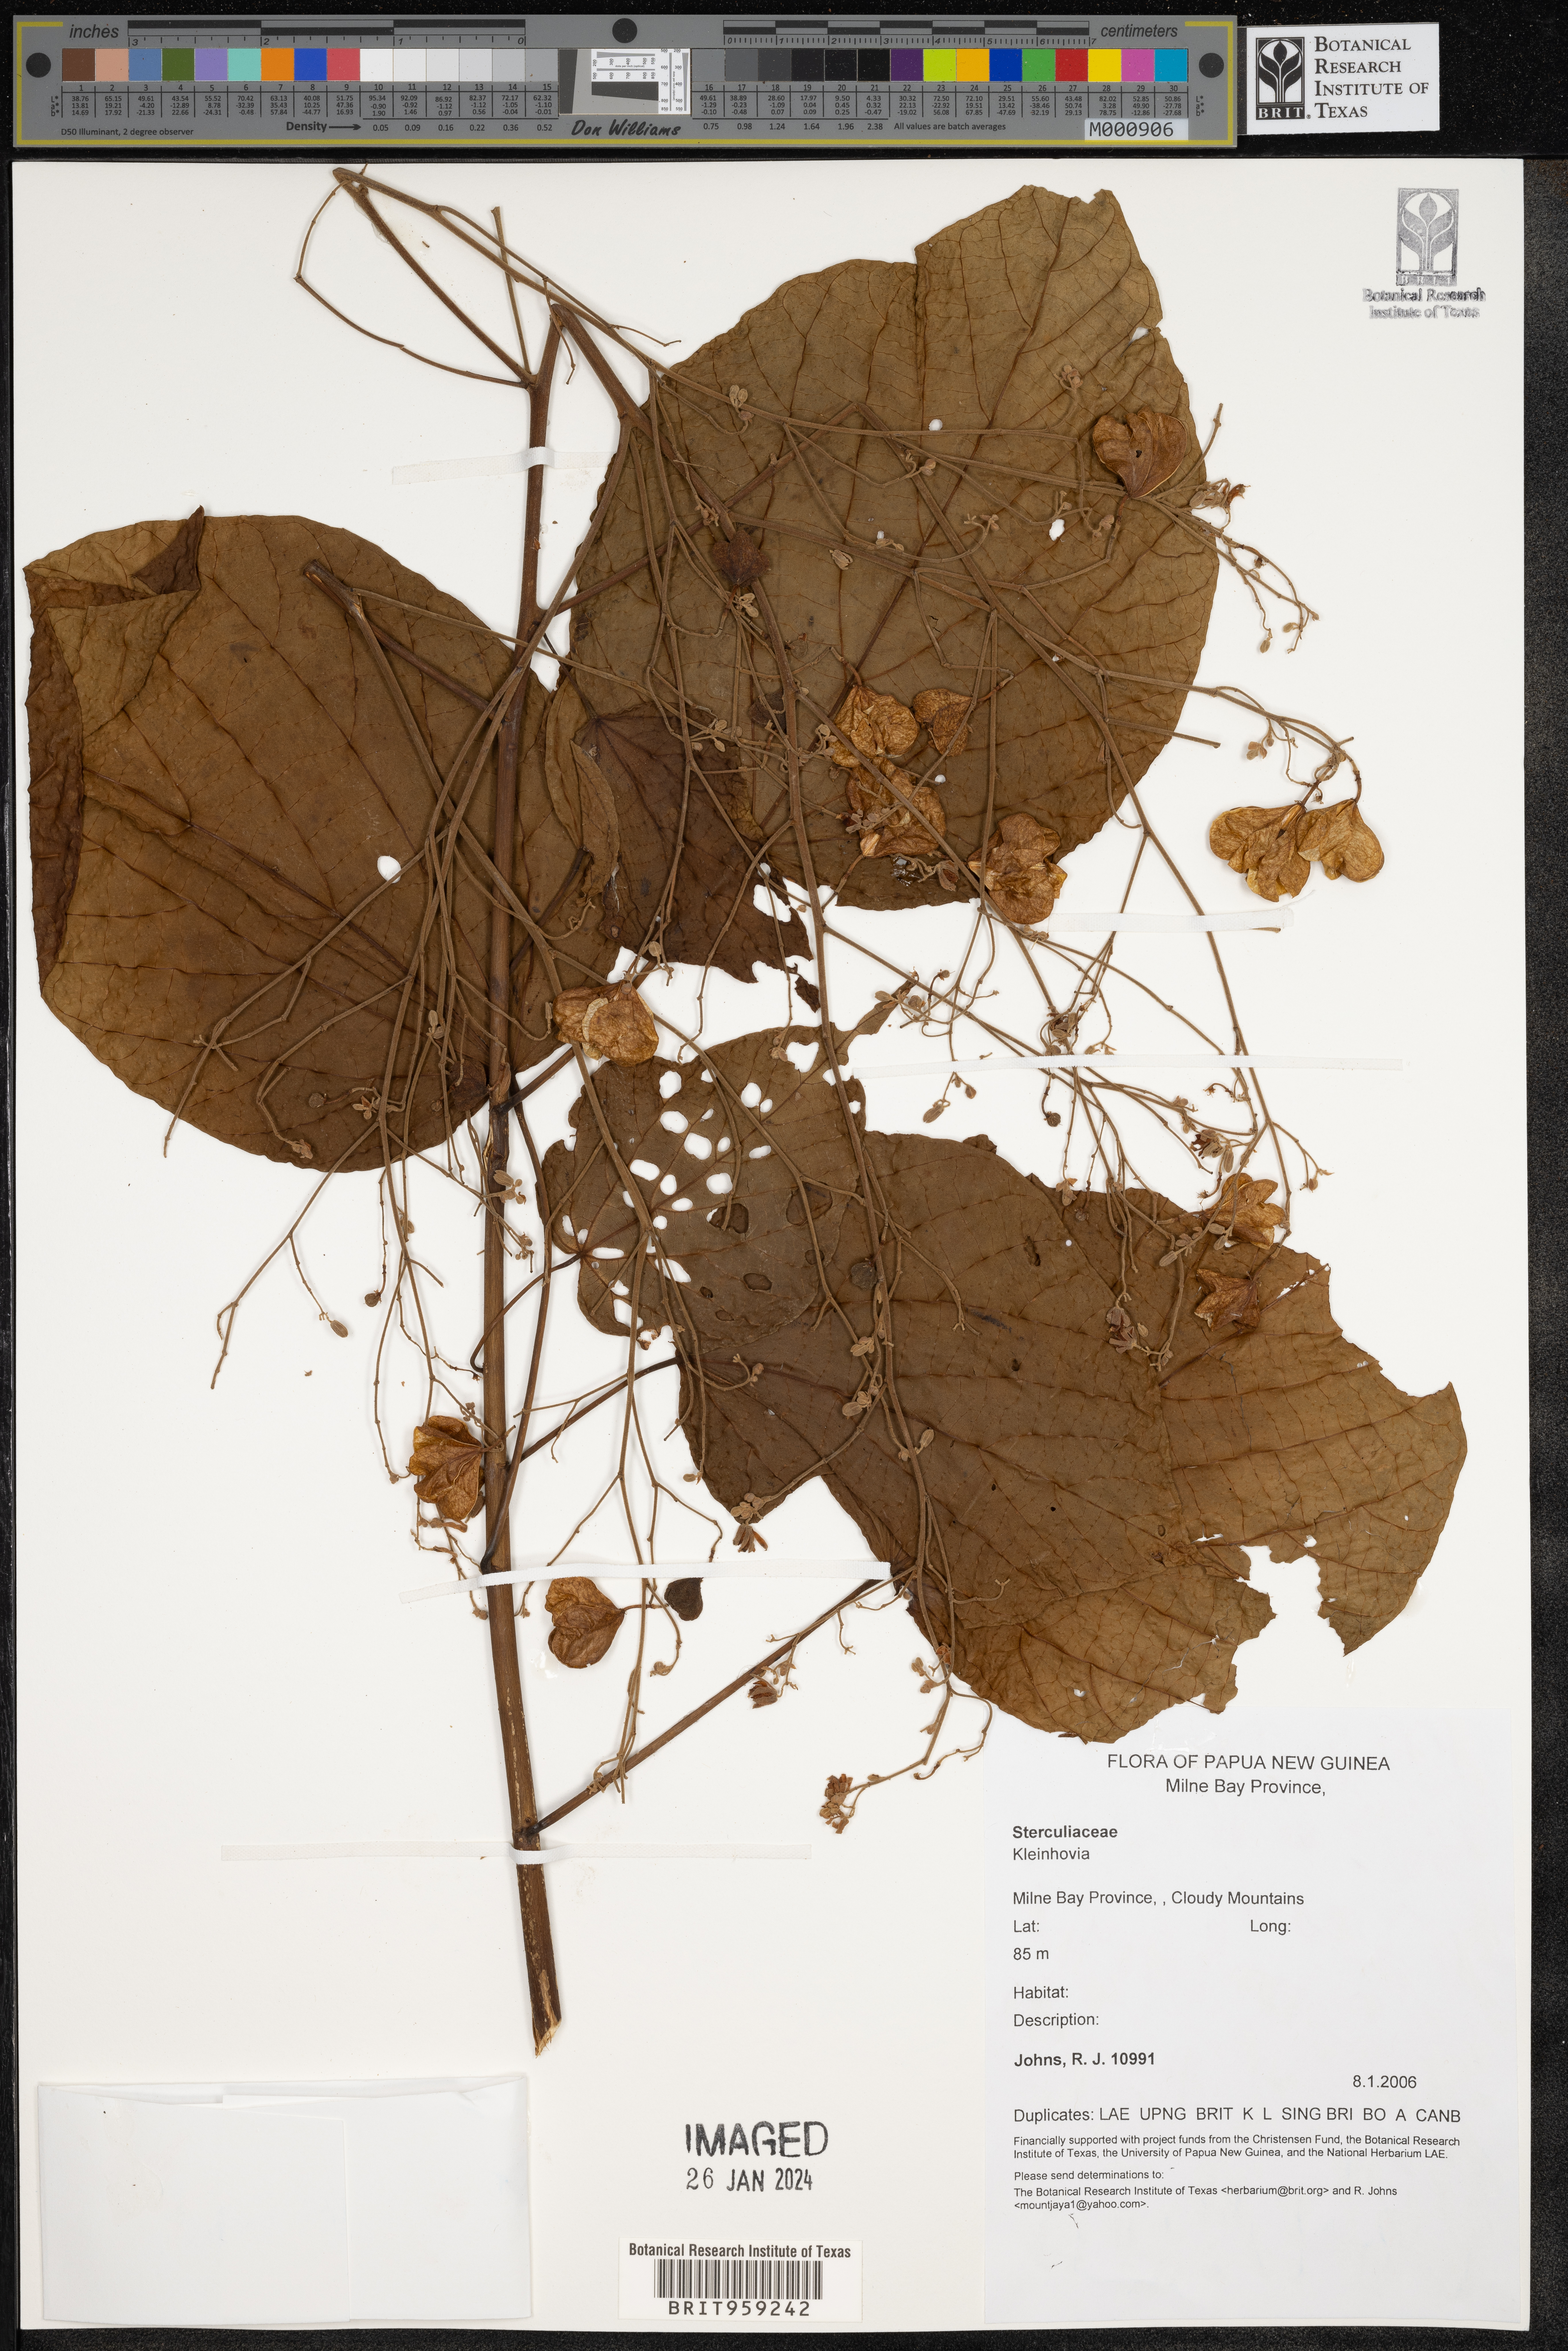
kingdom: Plantae
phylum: Tracheophyta
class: Magnoliopsida
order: Malvales
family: Malvaceae
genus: Kleinhovia
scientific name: Kleinhovia
